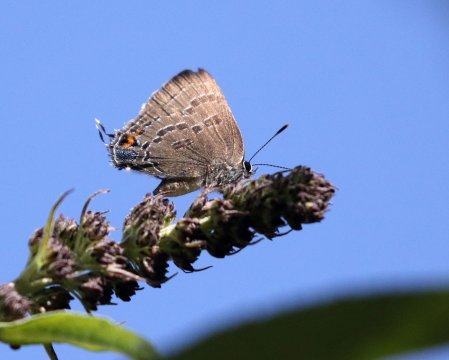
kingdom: Animalia
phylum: Arthropoda
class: Insecta
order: Lepidoptera
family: Lycaenidae
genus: Satyrium
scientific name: Satyrium calanus
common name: Banded Hairstreak
